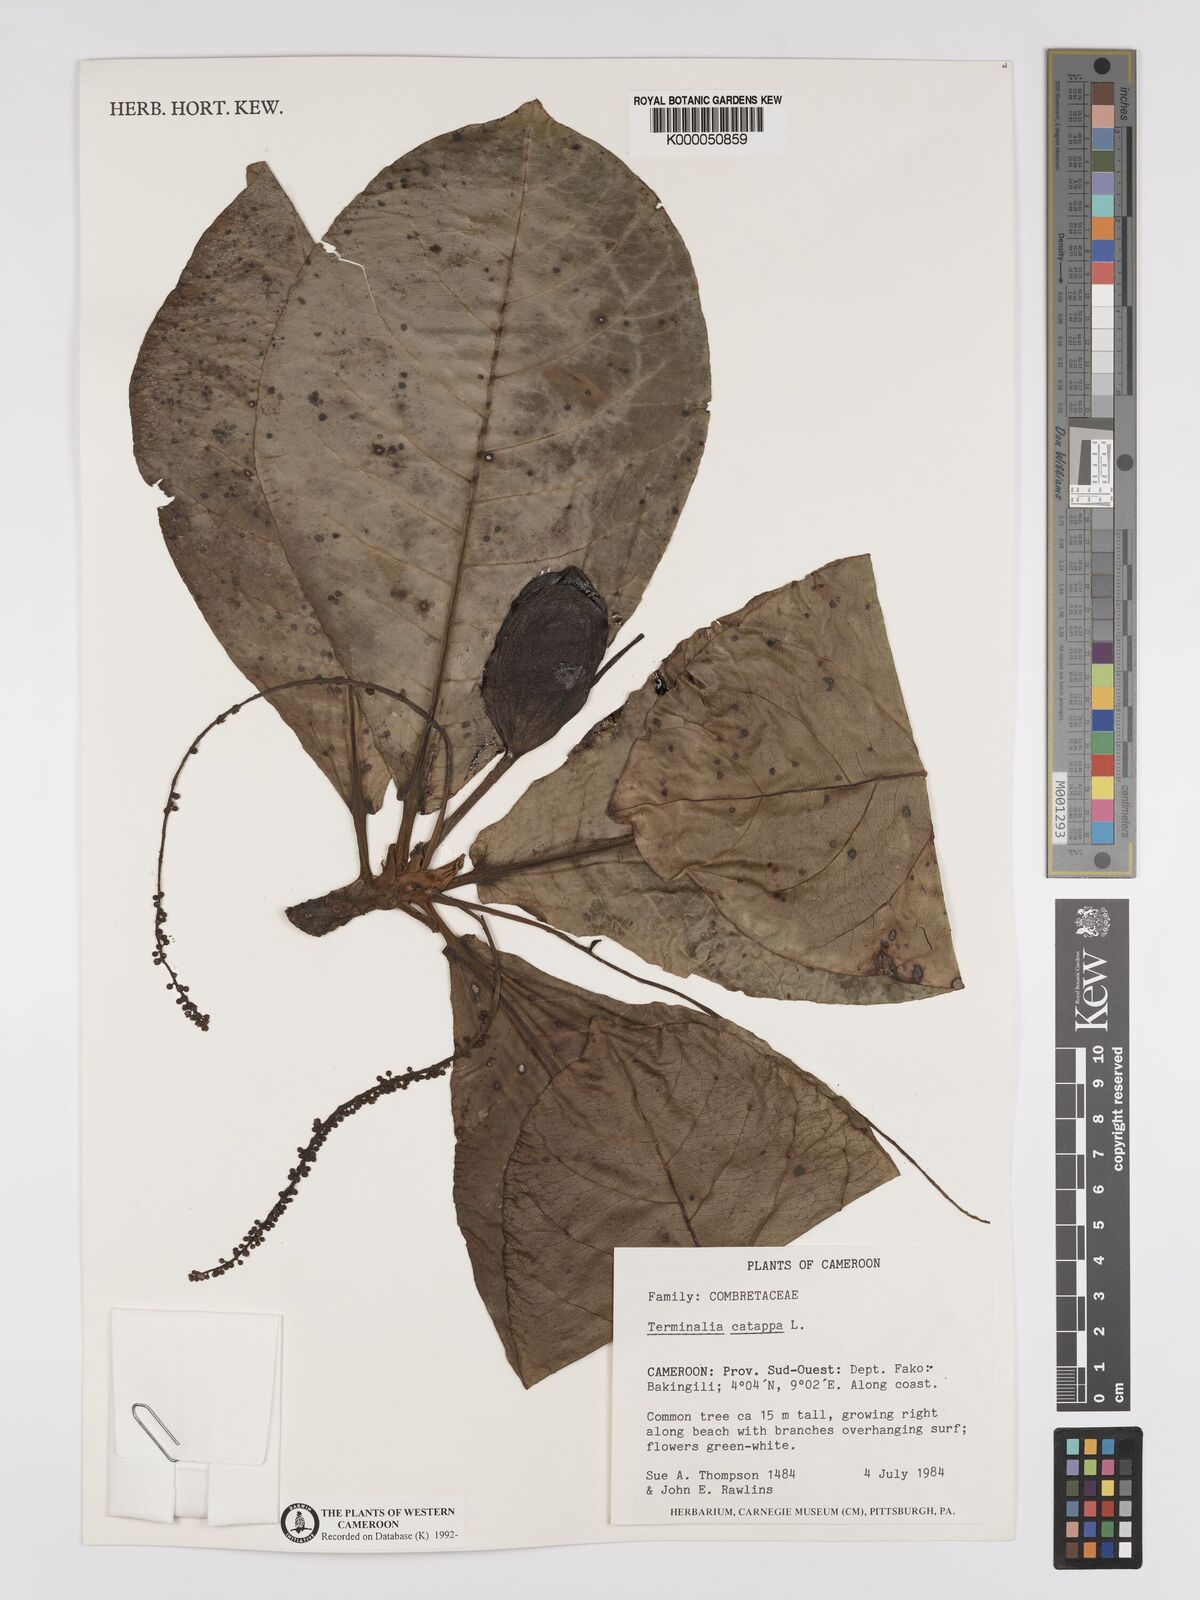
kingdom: Plantae
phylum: Tracheophyta
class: Magnoliopsida
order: Myrtales
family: Combretaceae
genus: Terminalia
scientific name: Terminalia catappa
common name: Tropical almond
